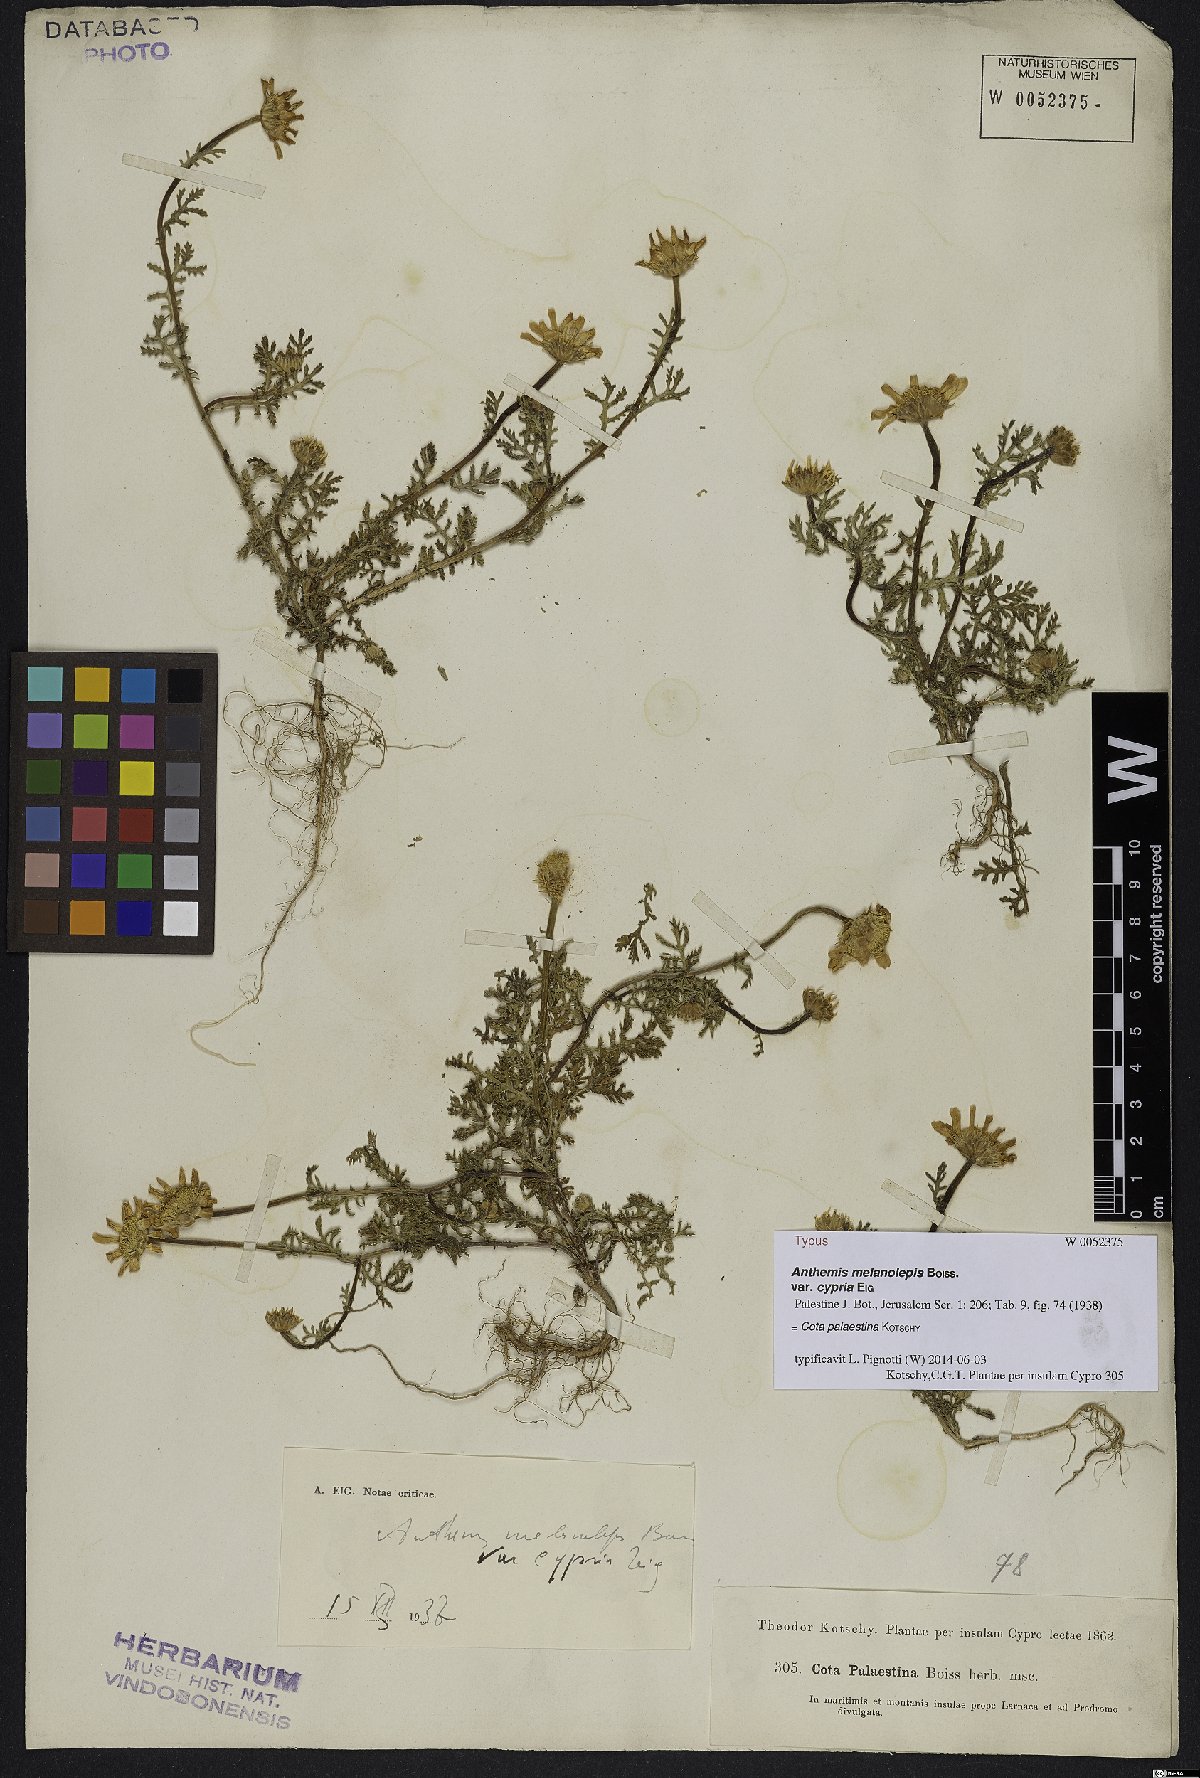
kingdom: Plantae
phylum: Tracheophyta
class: Magnoliopsida
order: Asterales
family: Asteraceae
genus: Cota
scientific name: Cota palaestina
